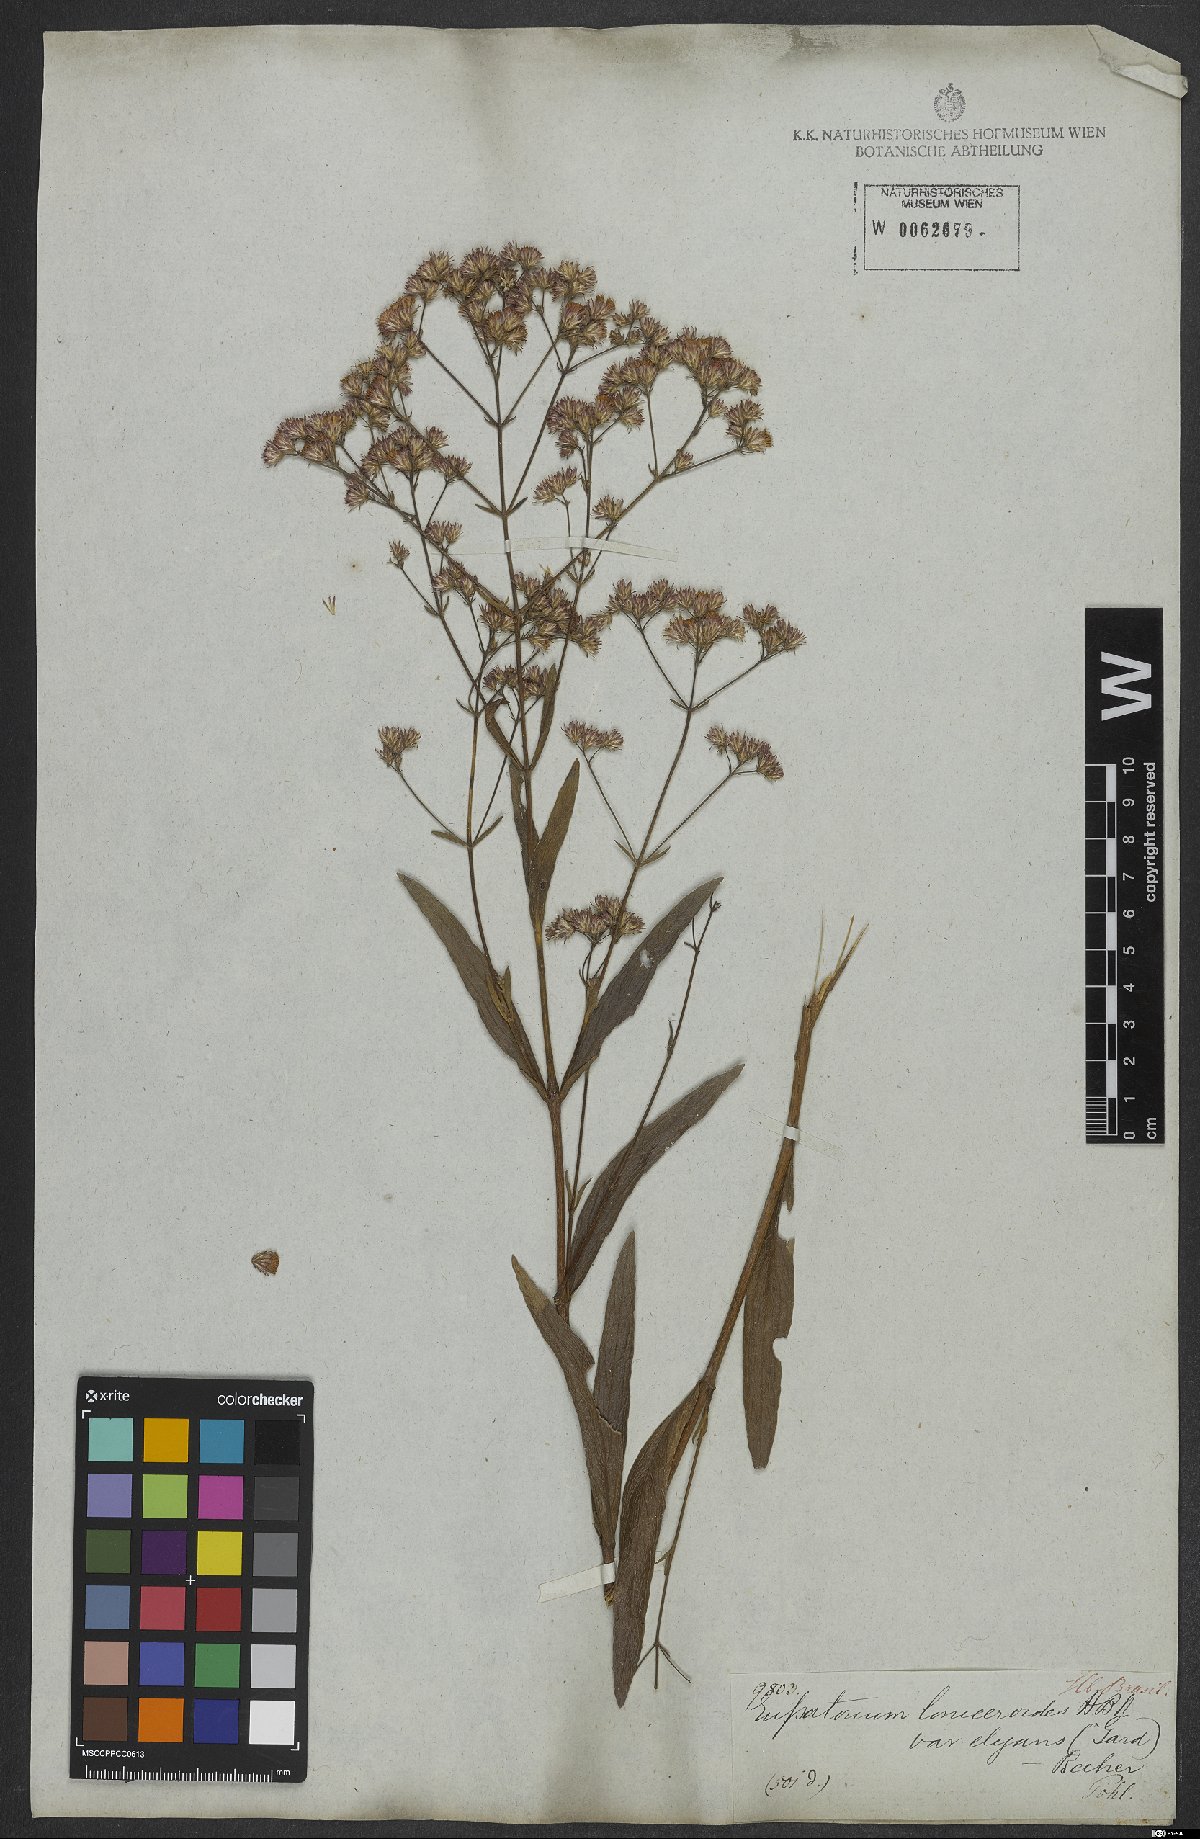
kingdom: Plantae
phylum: Tracheophyta
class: Magnoliopsida
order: Asterales
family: Asteraceae
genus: Ayapana
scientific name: Ayapana amygdalina
